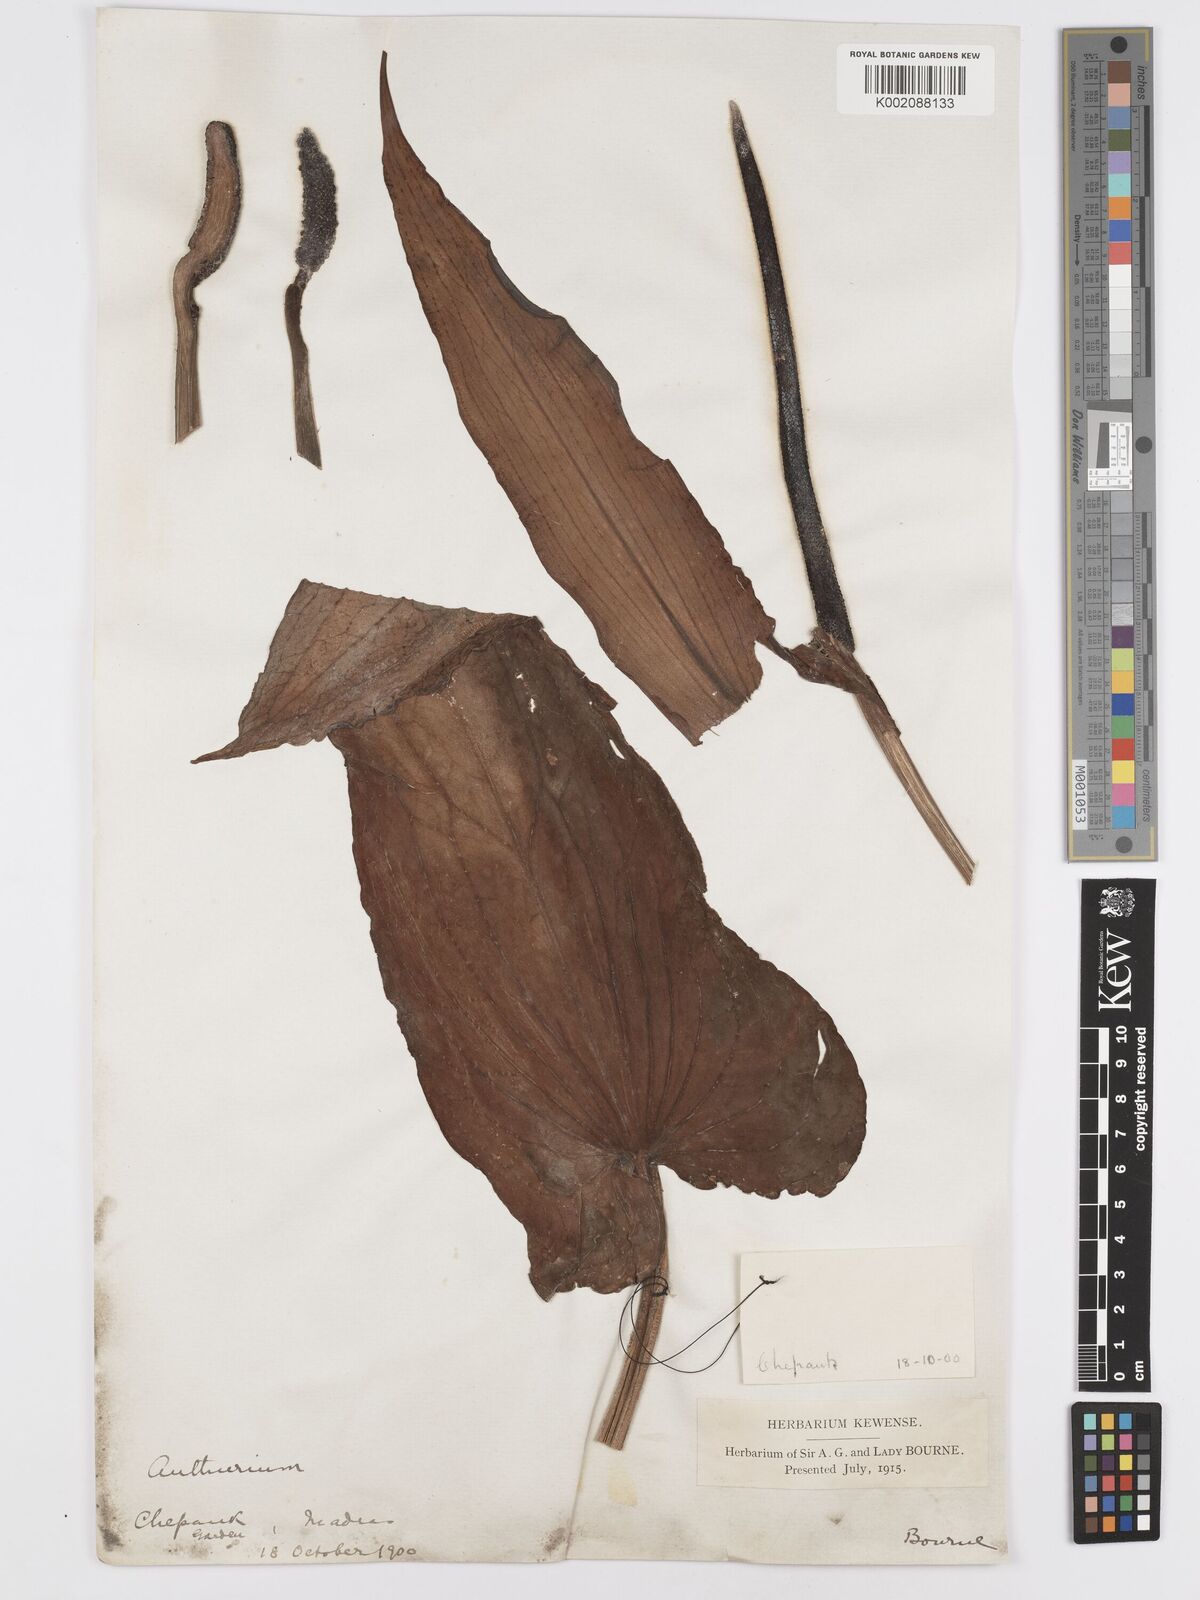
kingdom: Plantae
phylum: Tracheophyta
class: Liliopsida
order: Alismatales
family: Araceae
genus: Anthurium
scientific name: Anthurium
